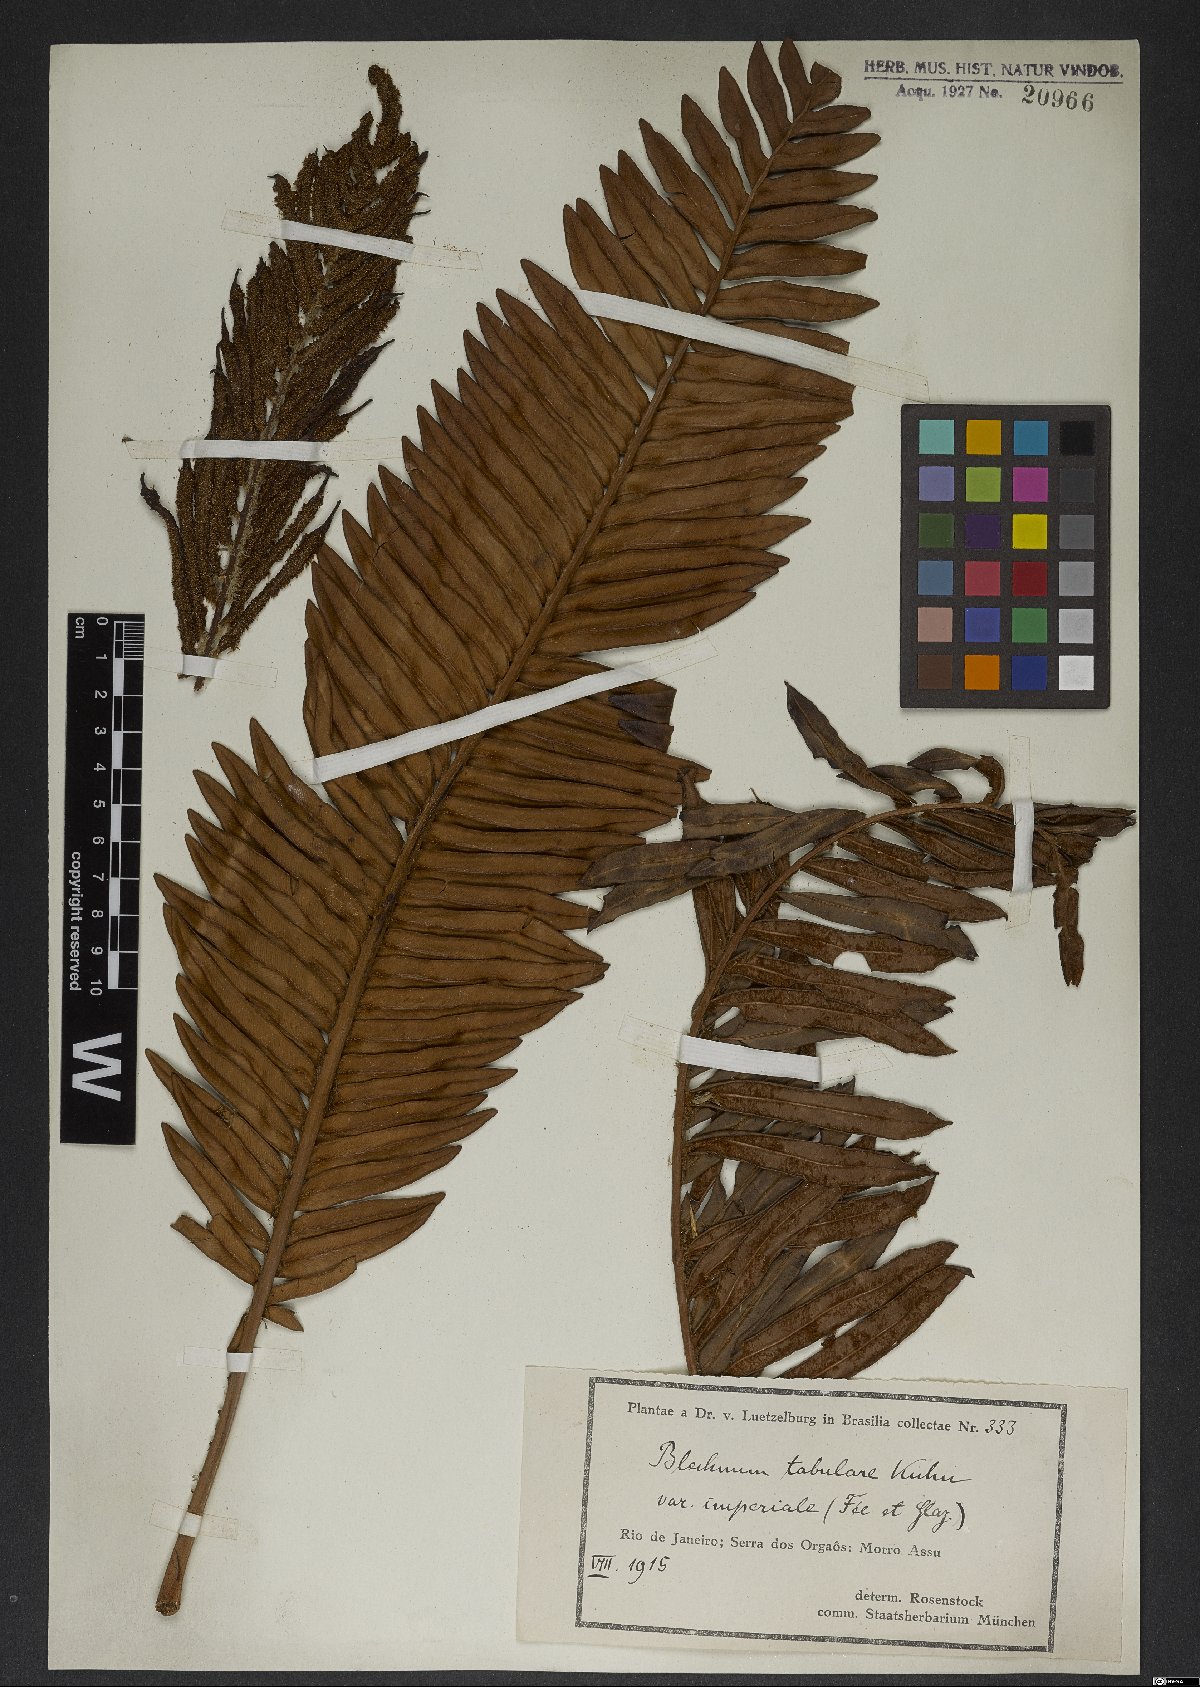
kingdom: Plantae
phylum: Tracheophyta
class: Polypodiopsida
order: Polypodiales
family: Blechnaceae
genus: Lomariocycas
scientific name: Lomariocycas tabularis
